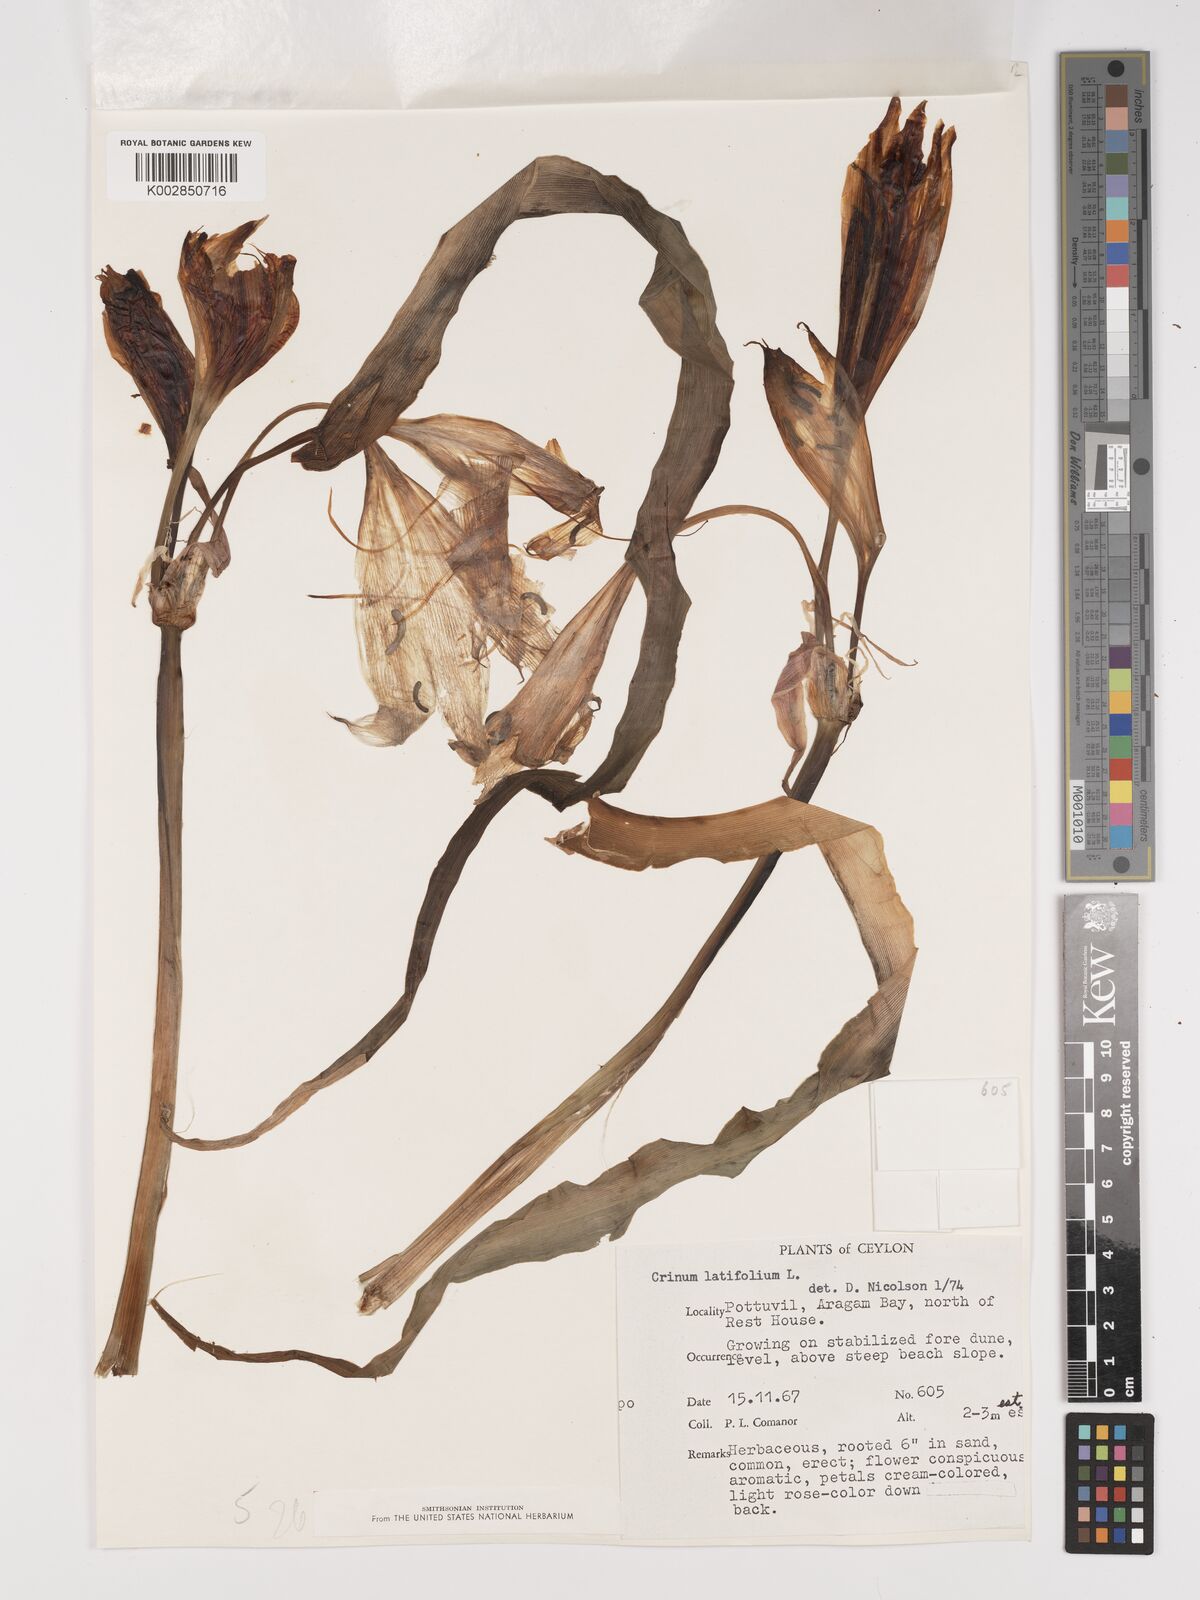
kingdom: Plantae
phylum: Tracheophyta
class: Liliopsida
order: Asparagales
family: Amaryllidaceae
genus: Crinum
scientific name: Crinum latifolium
